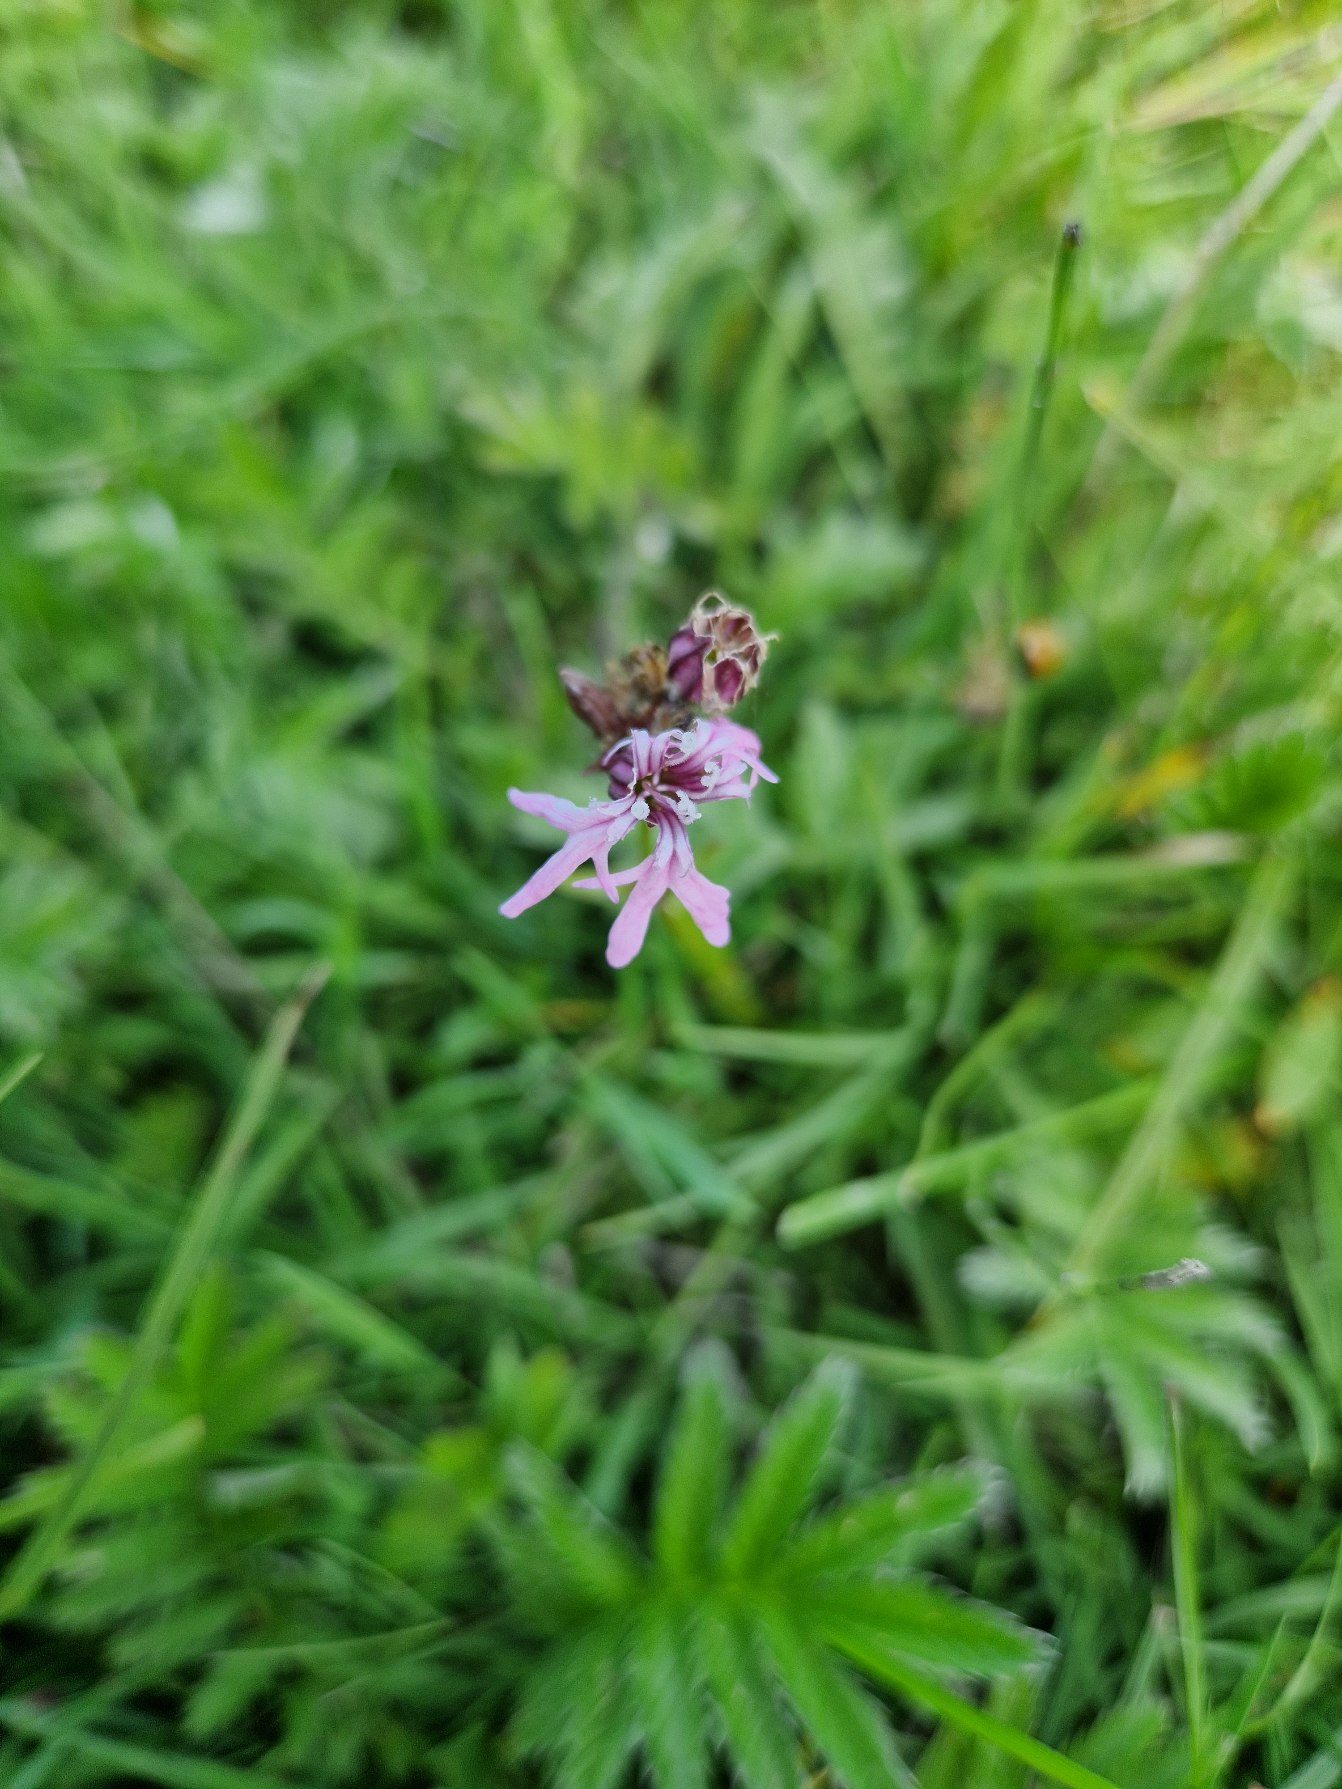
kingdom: Plantae
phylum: Tracheophyta
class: Magnoliopsida
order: Caryophyllales
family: Caryophyllaceae
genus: Silene
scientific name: Silene flos-cuculi
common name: Trævlekrone
